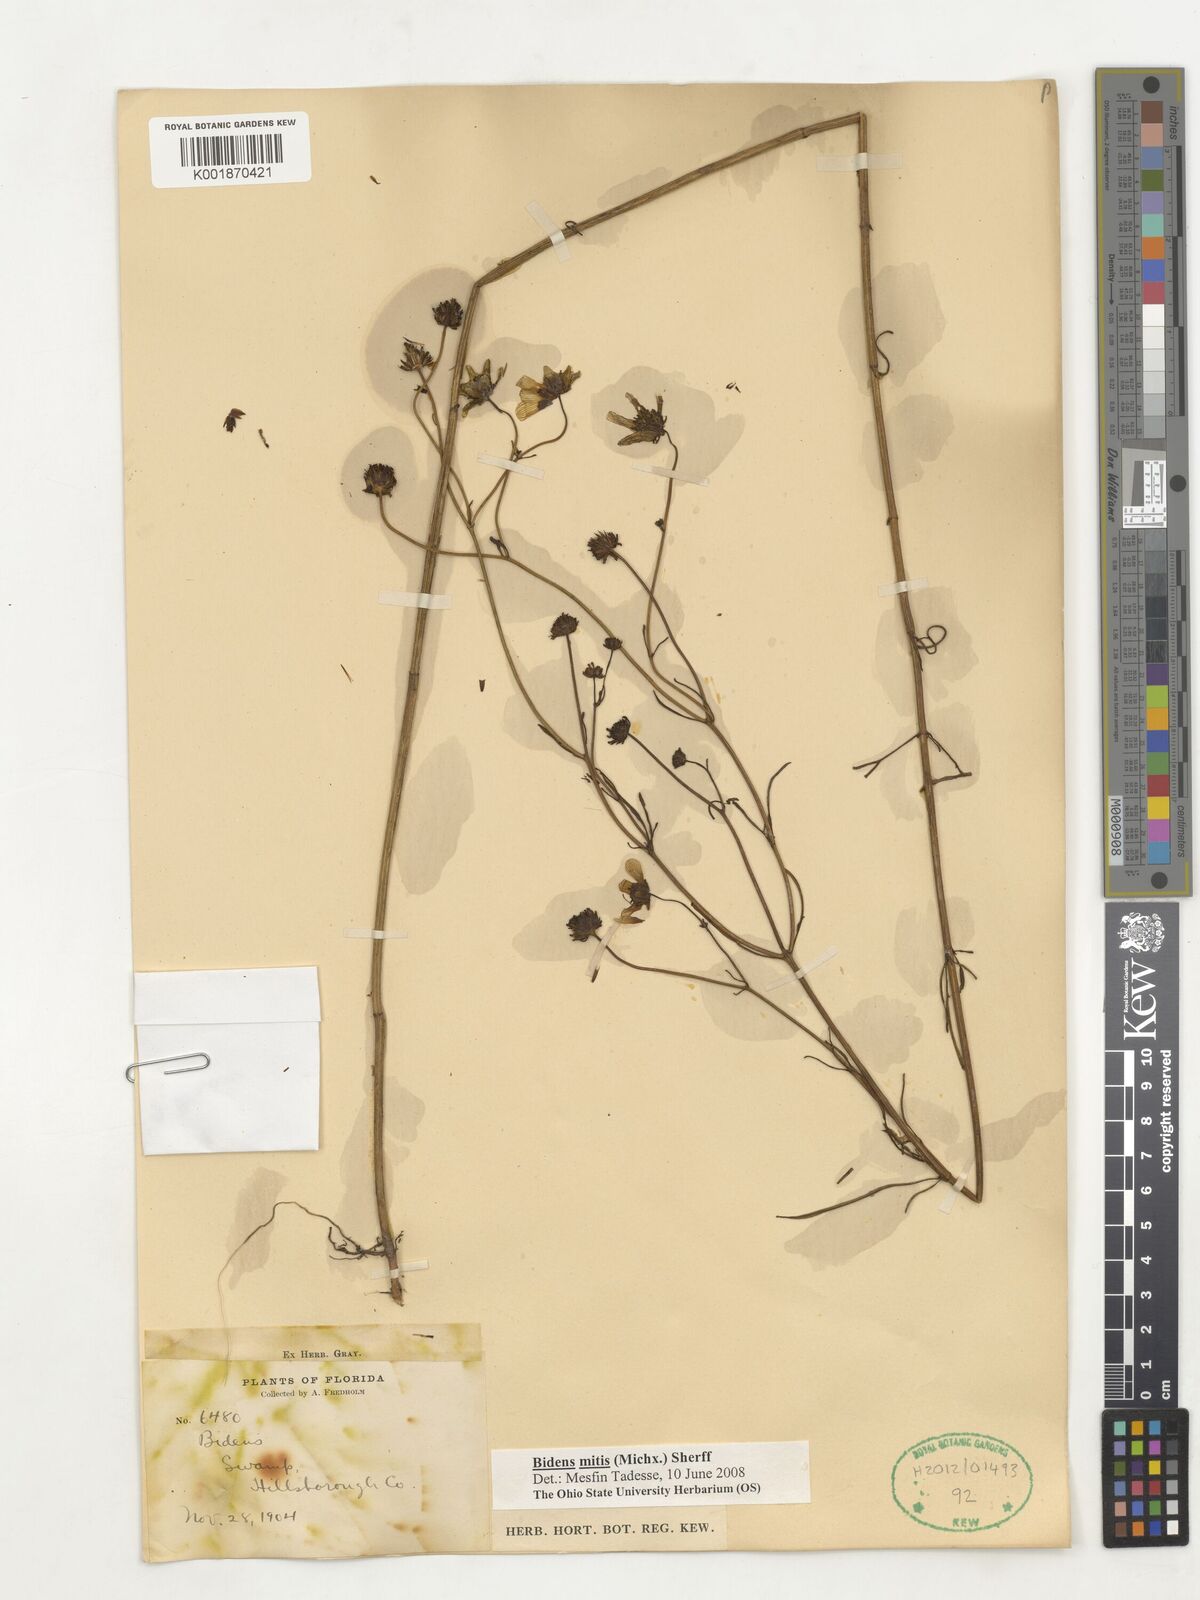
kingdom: Plantae
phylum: Tracheophyta
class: Magnoliopsida
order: Asterales
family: Asteraceae
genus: Bidens
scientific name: Bidens mitis
